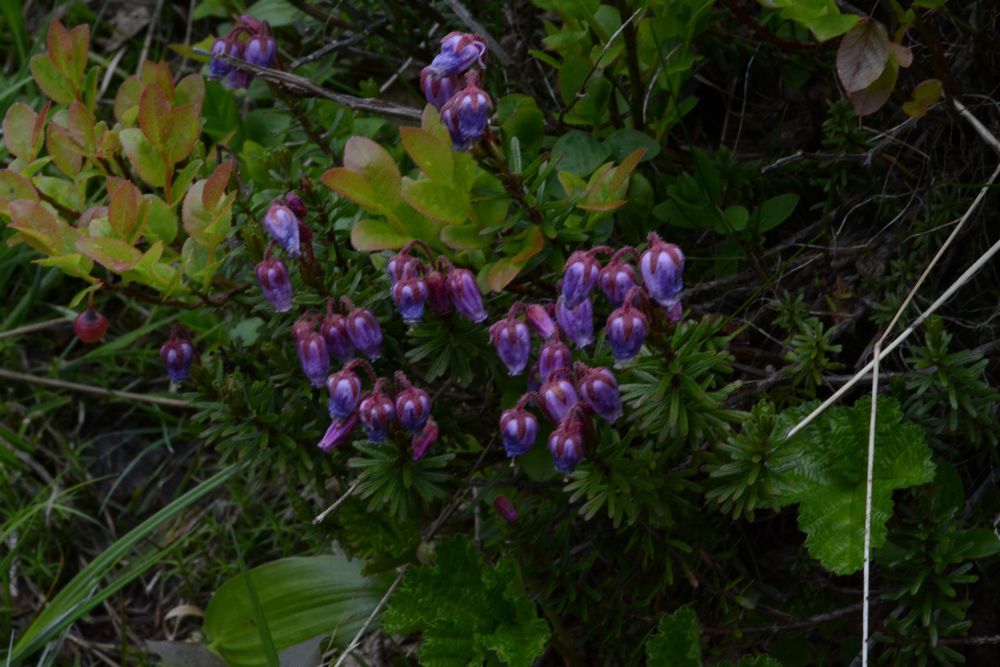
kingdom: Plantae
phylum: Tracheophyta
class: Magnoliopsida
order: Ericales
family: Ericaceae
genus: Phyllodoce
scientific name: Phyllodoce caerulea
